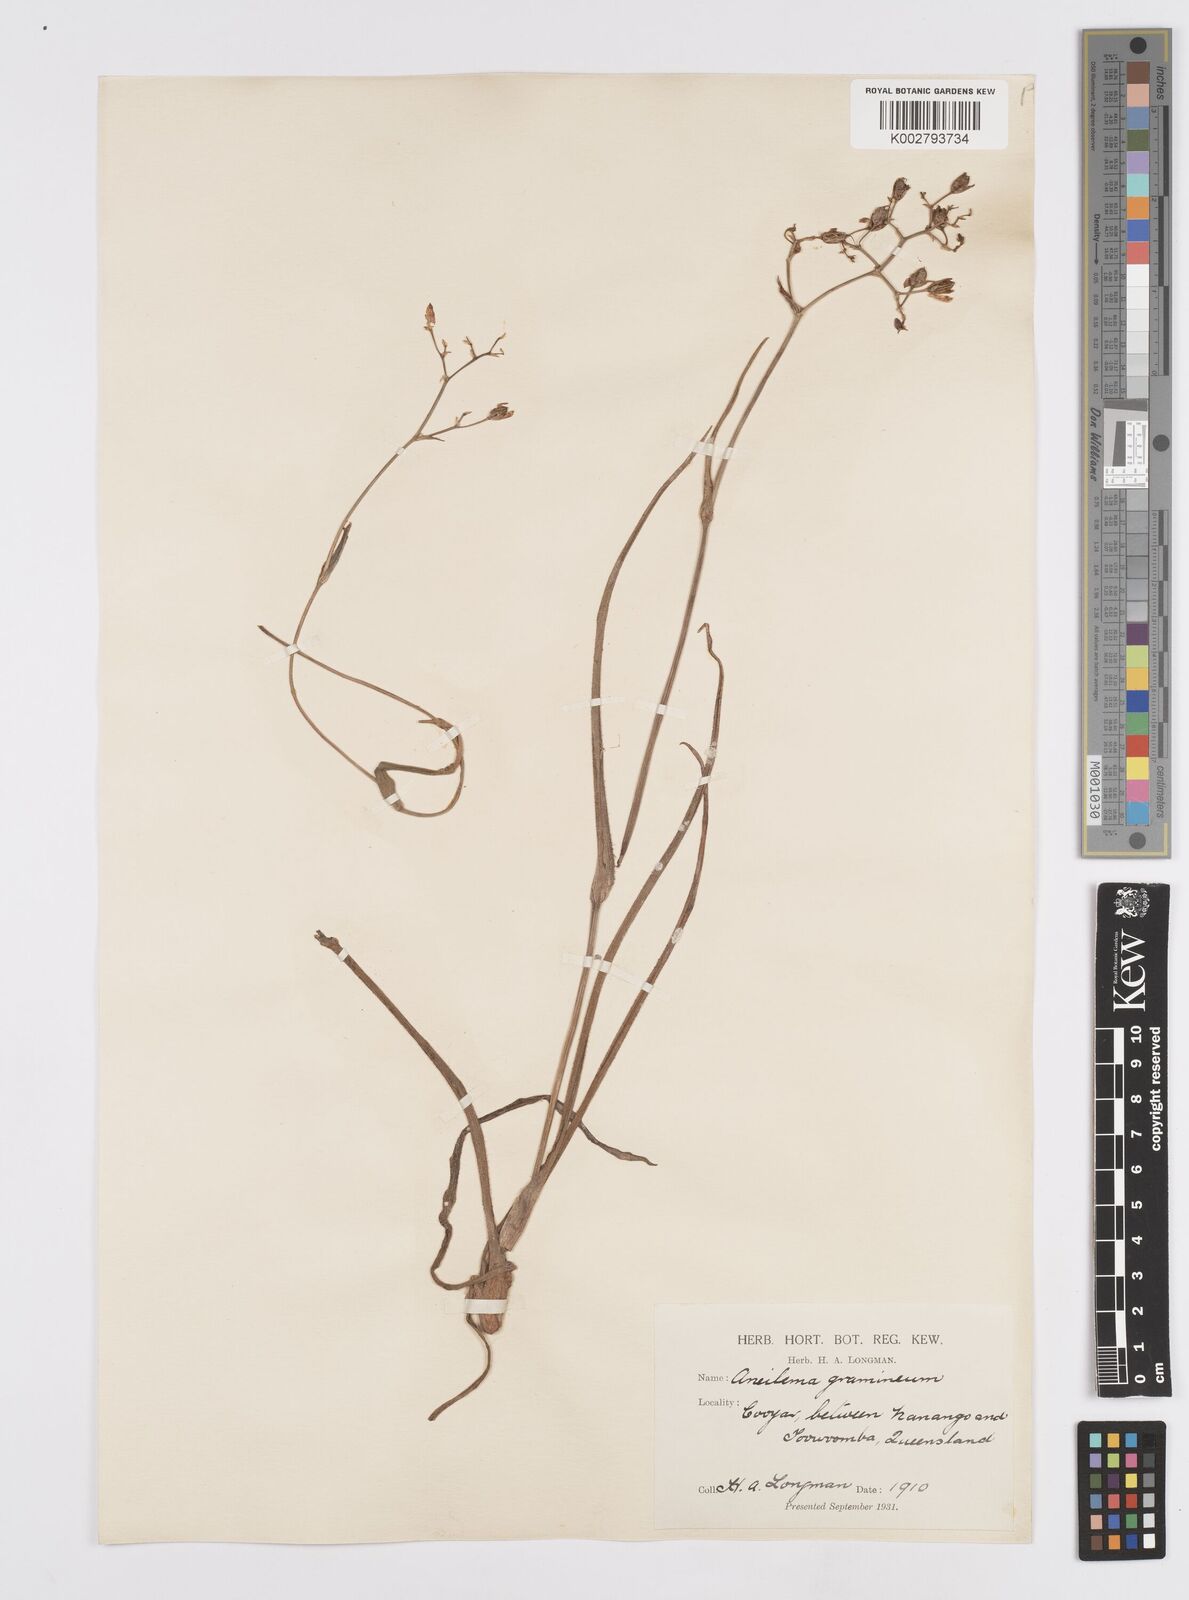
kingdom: Plantae
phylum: Tracheophyta
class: Liliopsida
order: Commelinales
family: Commelinaceae
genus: Murdannia
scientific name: Murdannia graminea
